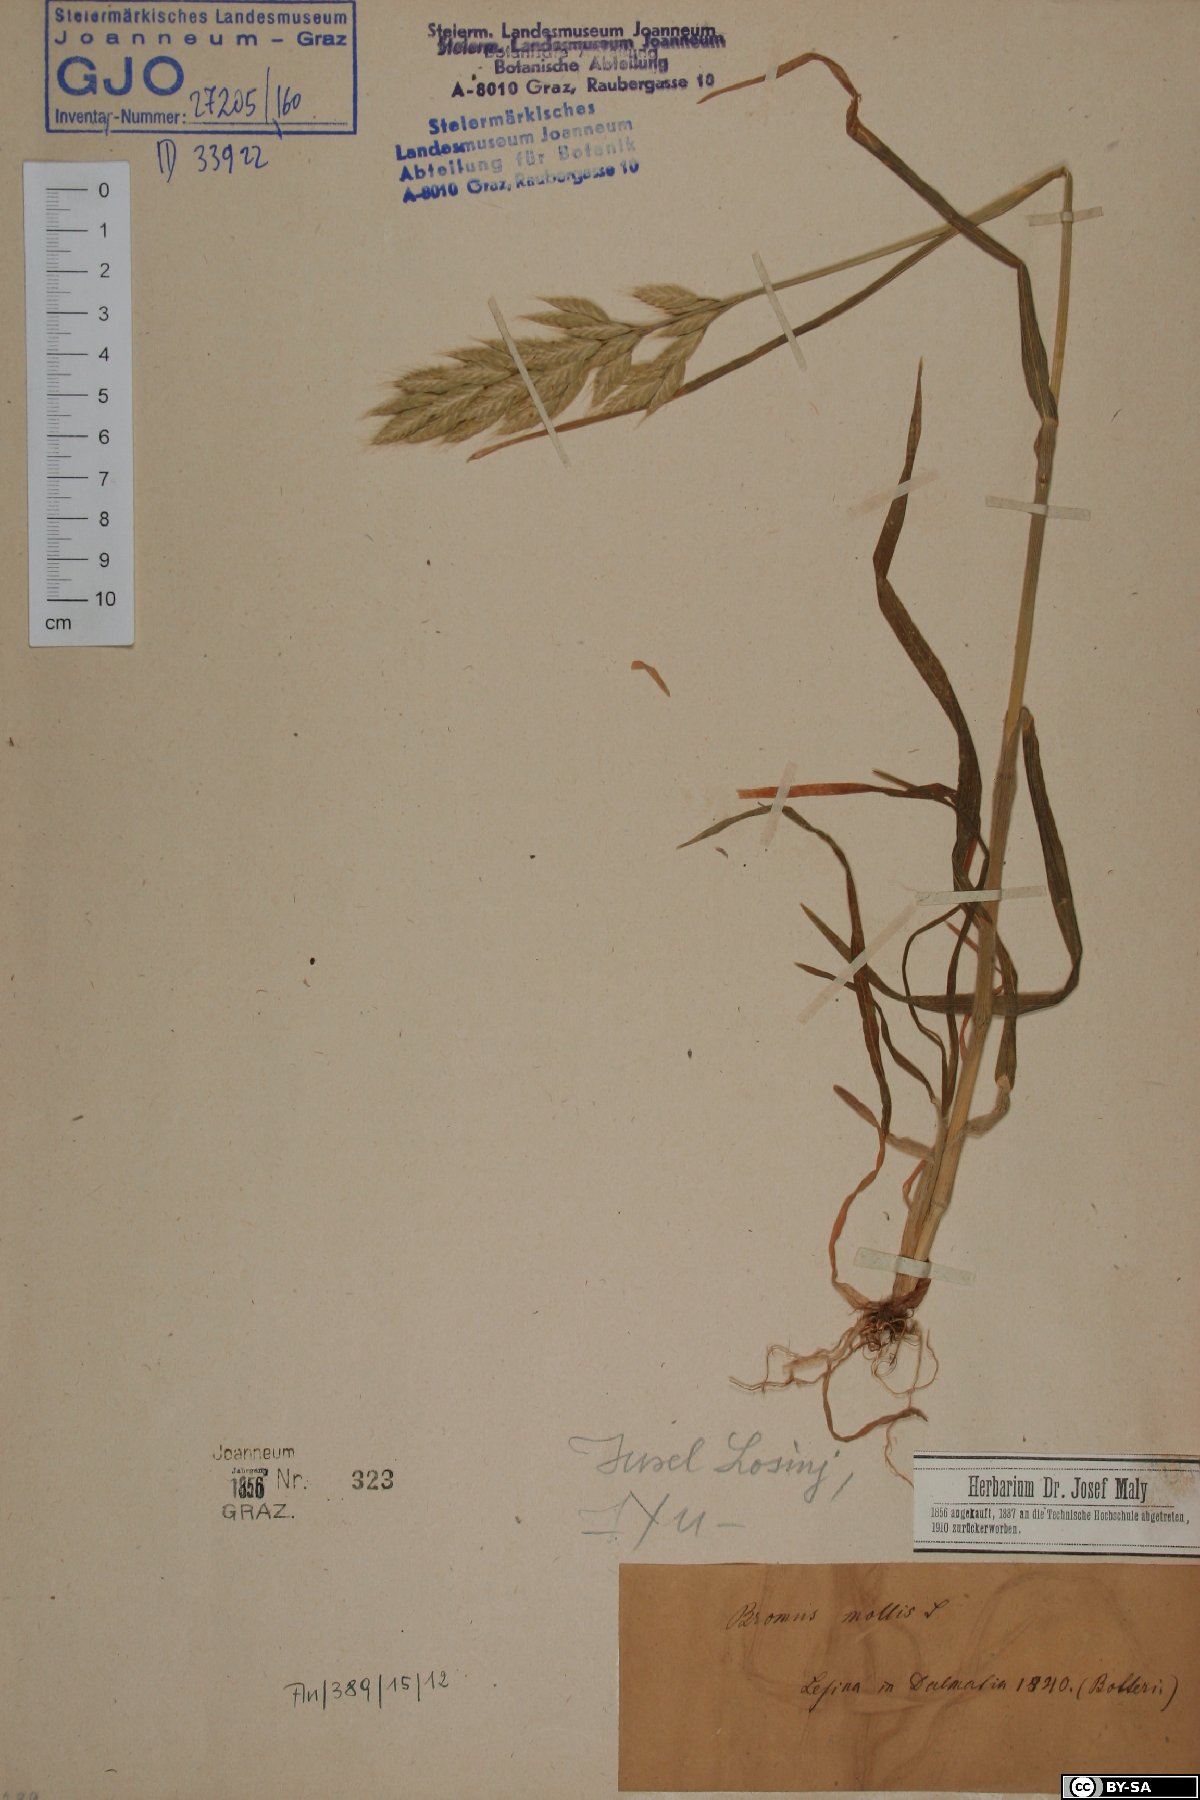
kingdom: Plantae
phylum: Tracheophyta
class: Liliopsida
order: Poales
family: Poaceae
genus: Bromus
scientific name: Bromus hordeaceus
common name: Soft brome
